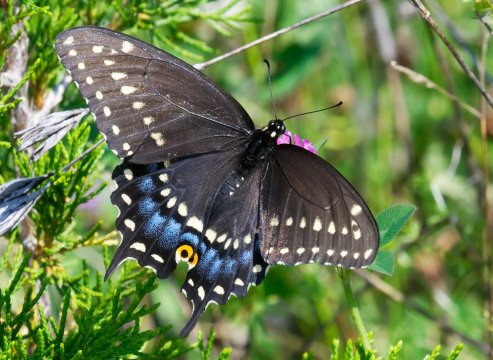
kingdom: Animalia
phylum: Arthropoda
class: Insecta
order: Lepidoptera
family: Papilionidae
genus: Papilio
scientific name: Papilio polyxenes
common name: Black Swallowtail
